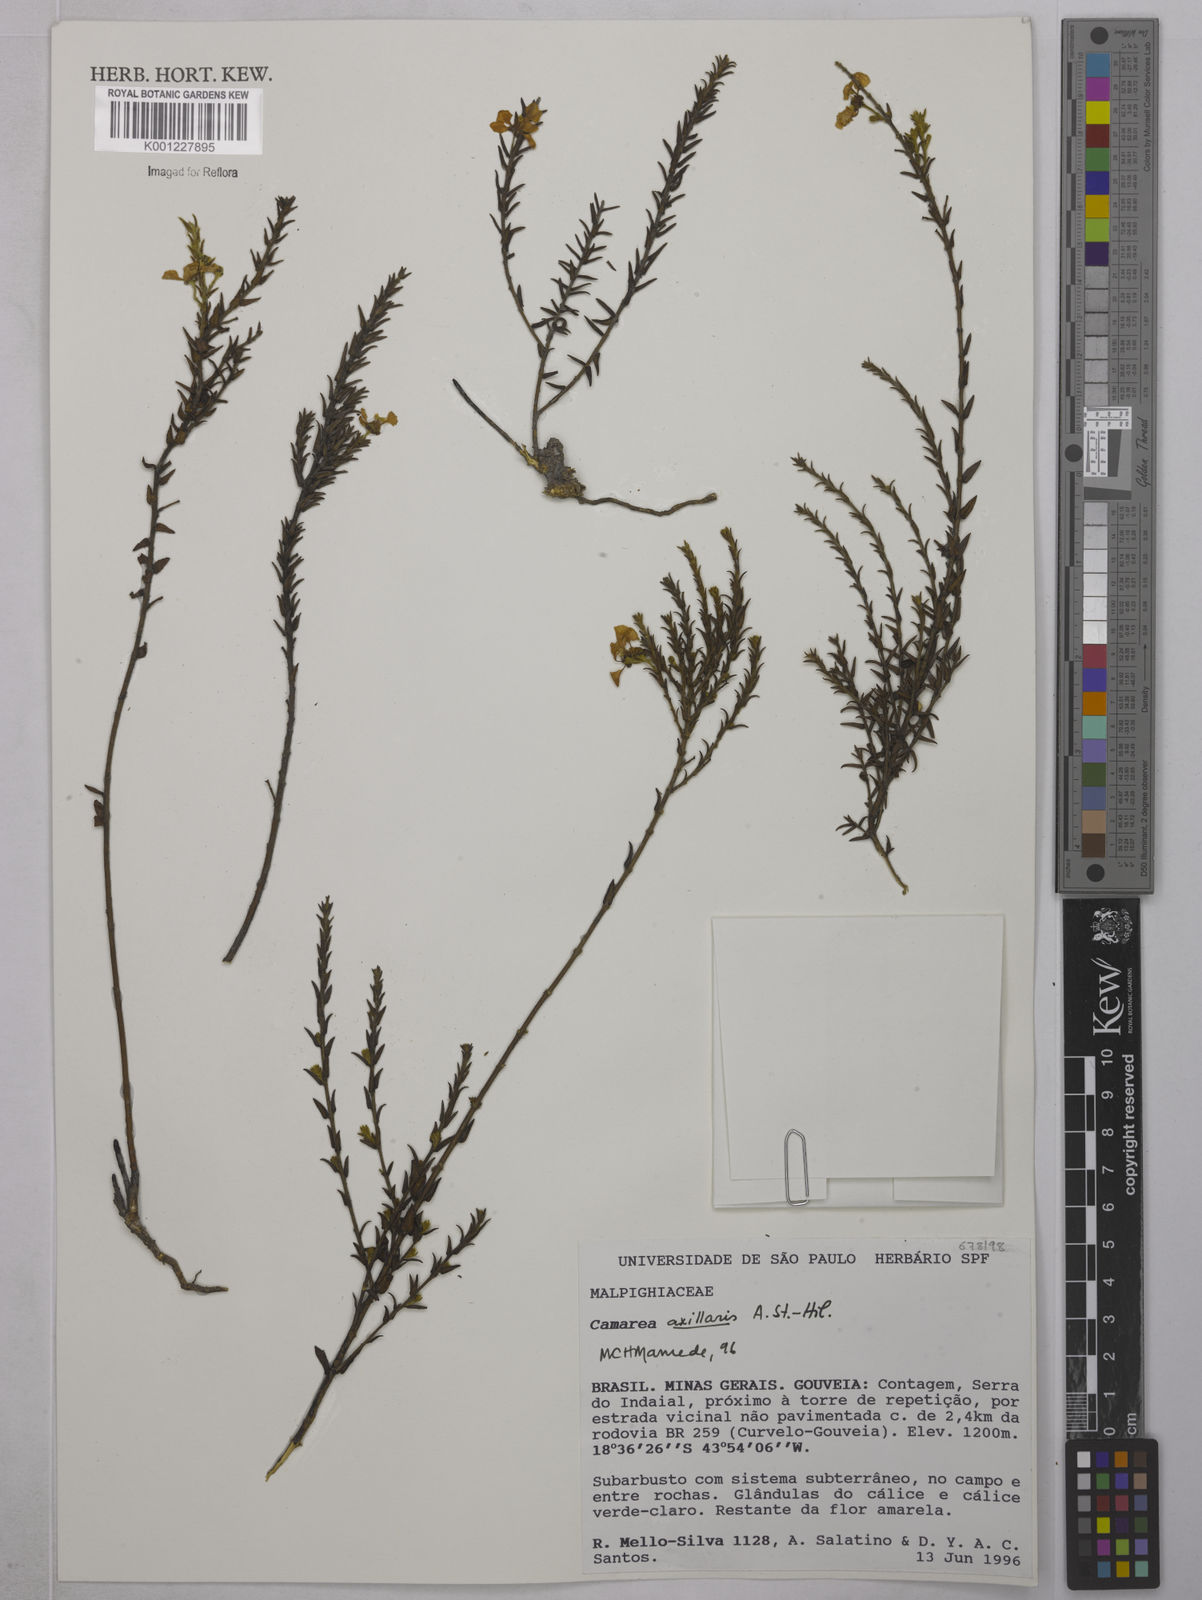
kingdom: Plantae
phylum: Tracheophyta
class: Magnoliopsida
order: Malpighiales
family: Malpighiaceae
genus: Camarea
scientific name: Camarea axillaris
